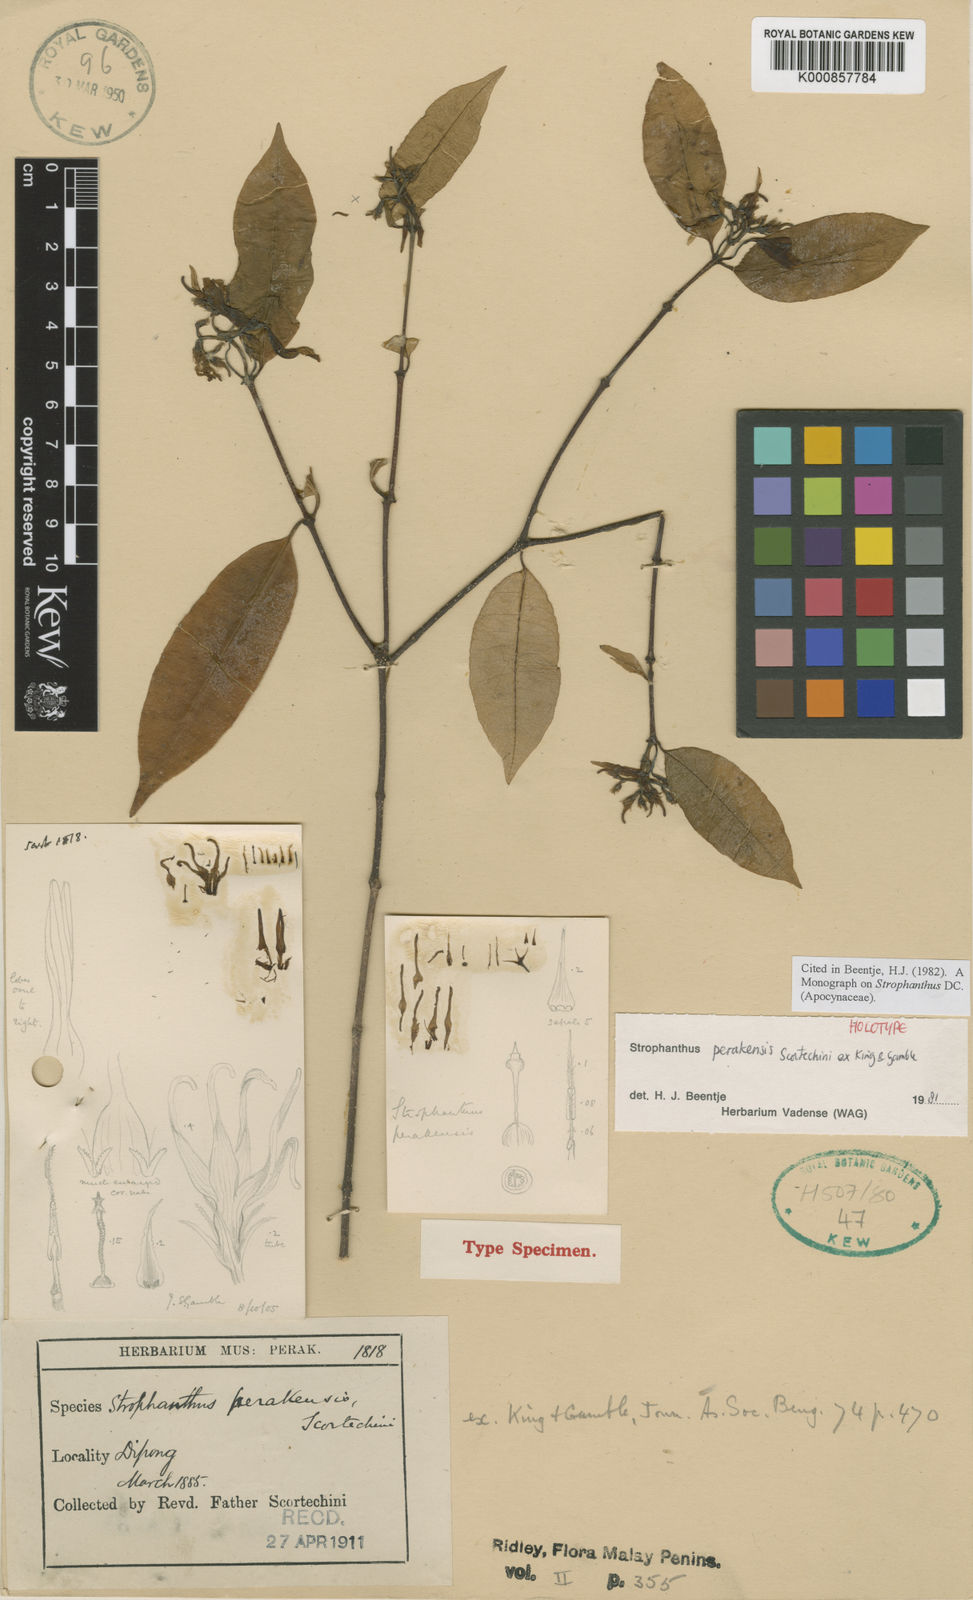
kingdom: Plantae
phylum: Tracheophyta
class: Magnoliopsida
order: Gentianales
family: Apocynaceae
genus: Strophanthus
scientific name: Strophanthus perakensis
